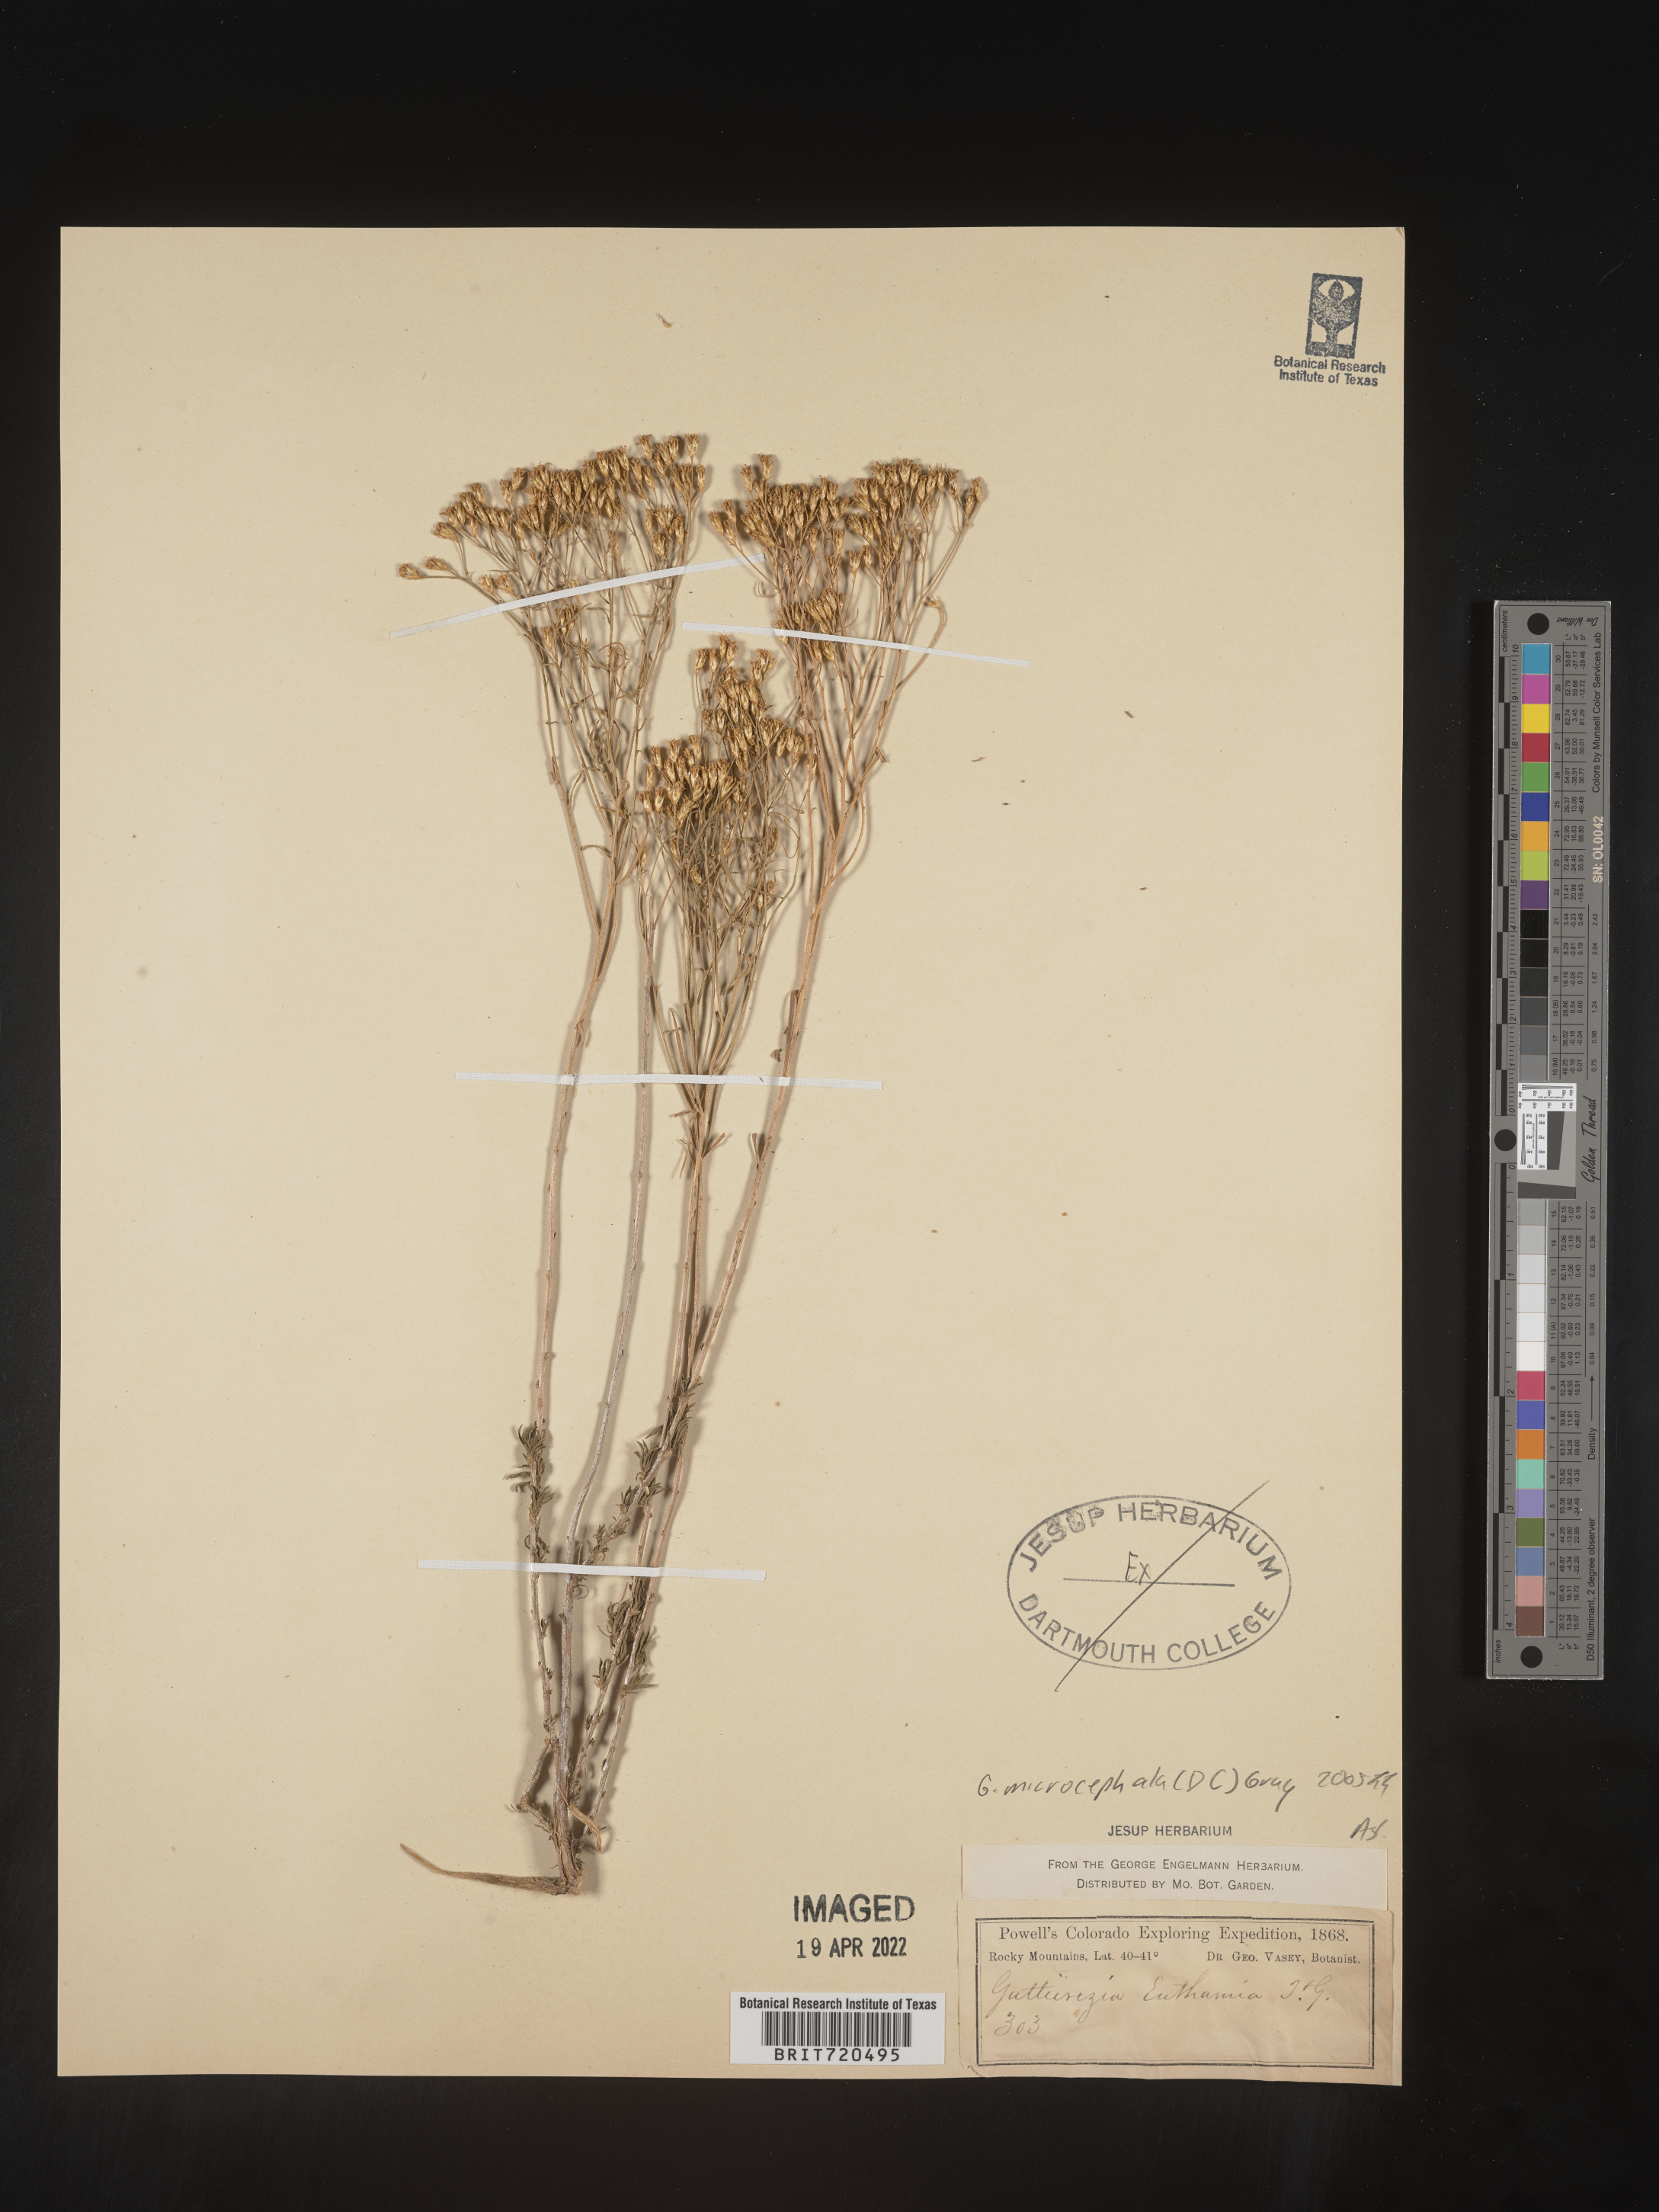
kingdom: Plantae
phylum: Tracheophyta
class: Magnoliopsida
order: Asterales
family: Asteraceae
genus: Gutierrezia
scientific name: Gutierrezia microcephala
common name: Thread snakeweed
